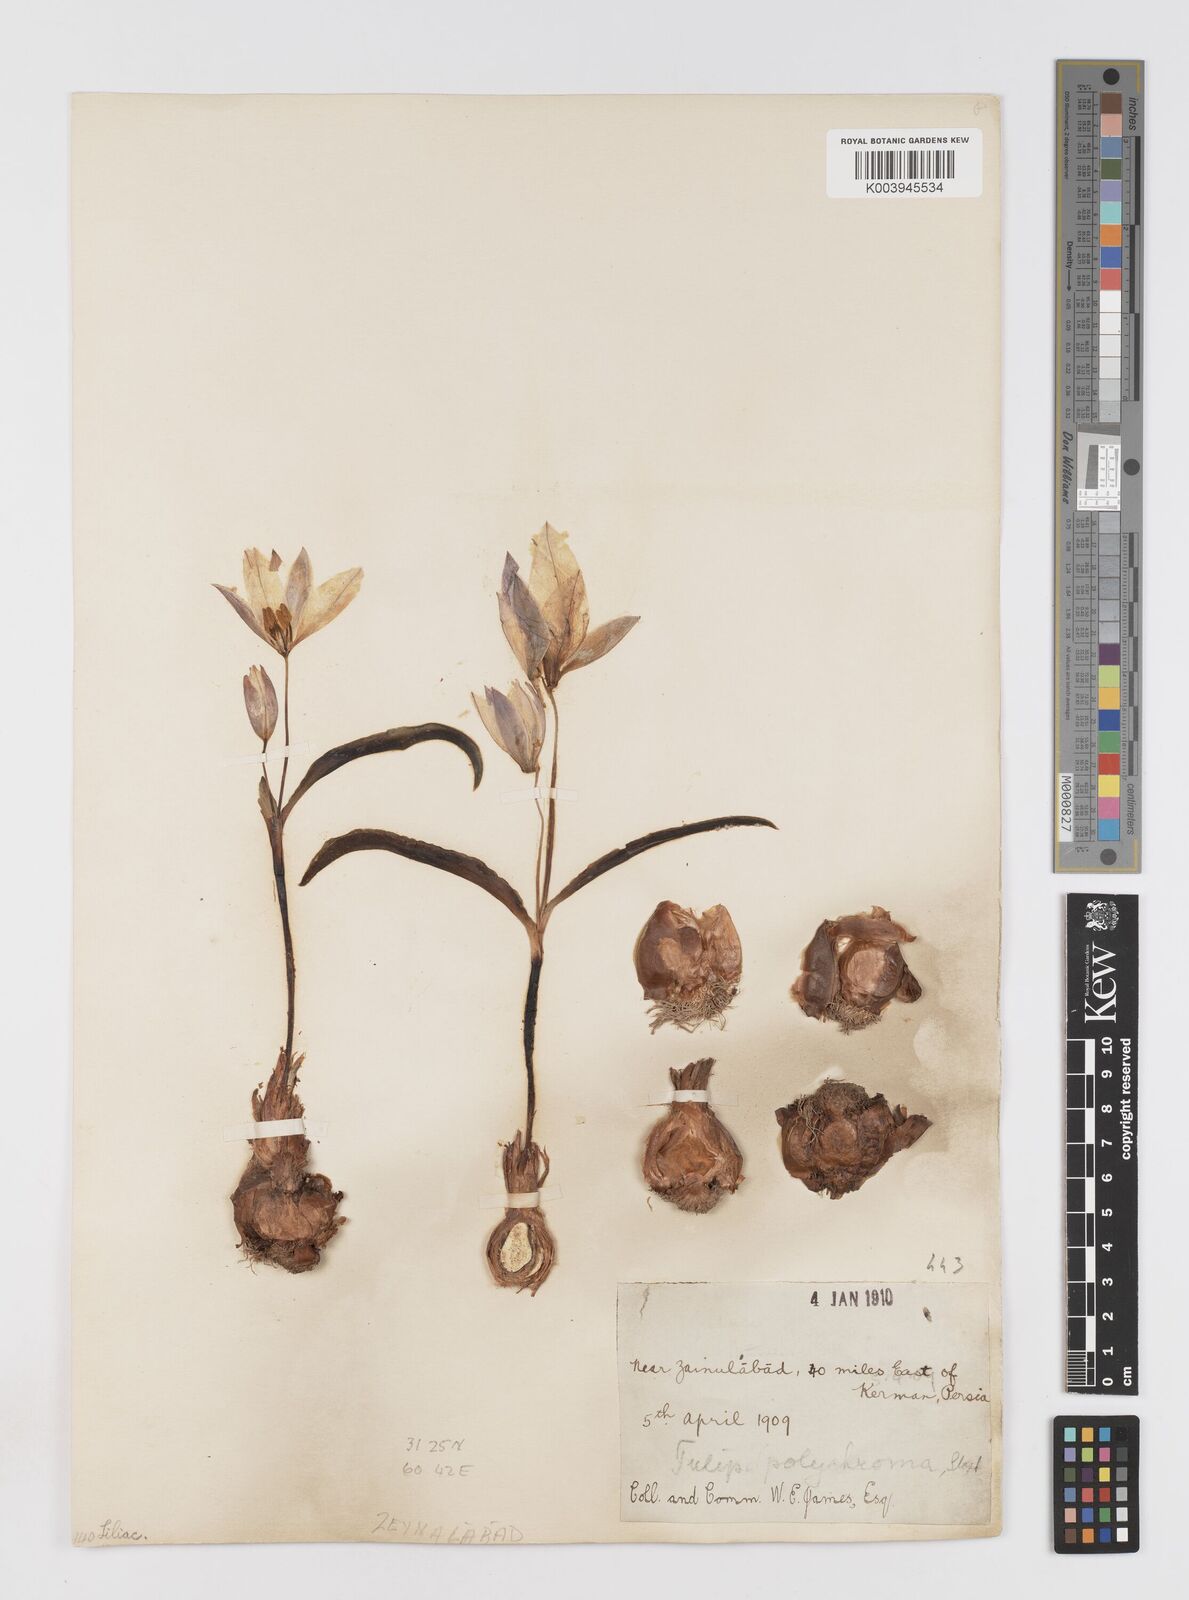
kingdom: Plantae
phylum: Tracheophyta
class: Liliopsida
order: Liliales
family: Liliaceae
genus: Tulipa
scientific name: Tulipa
